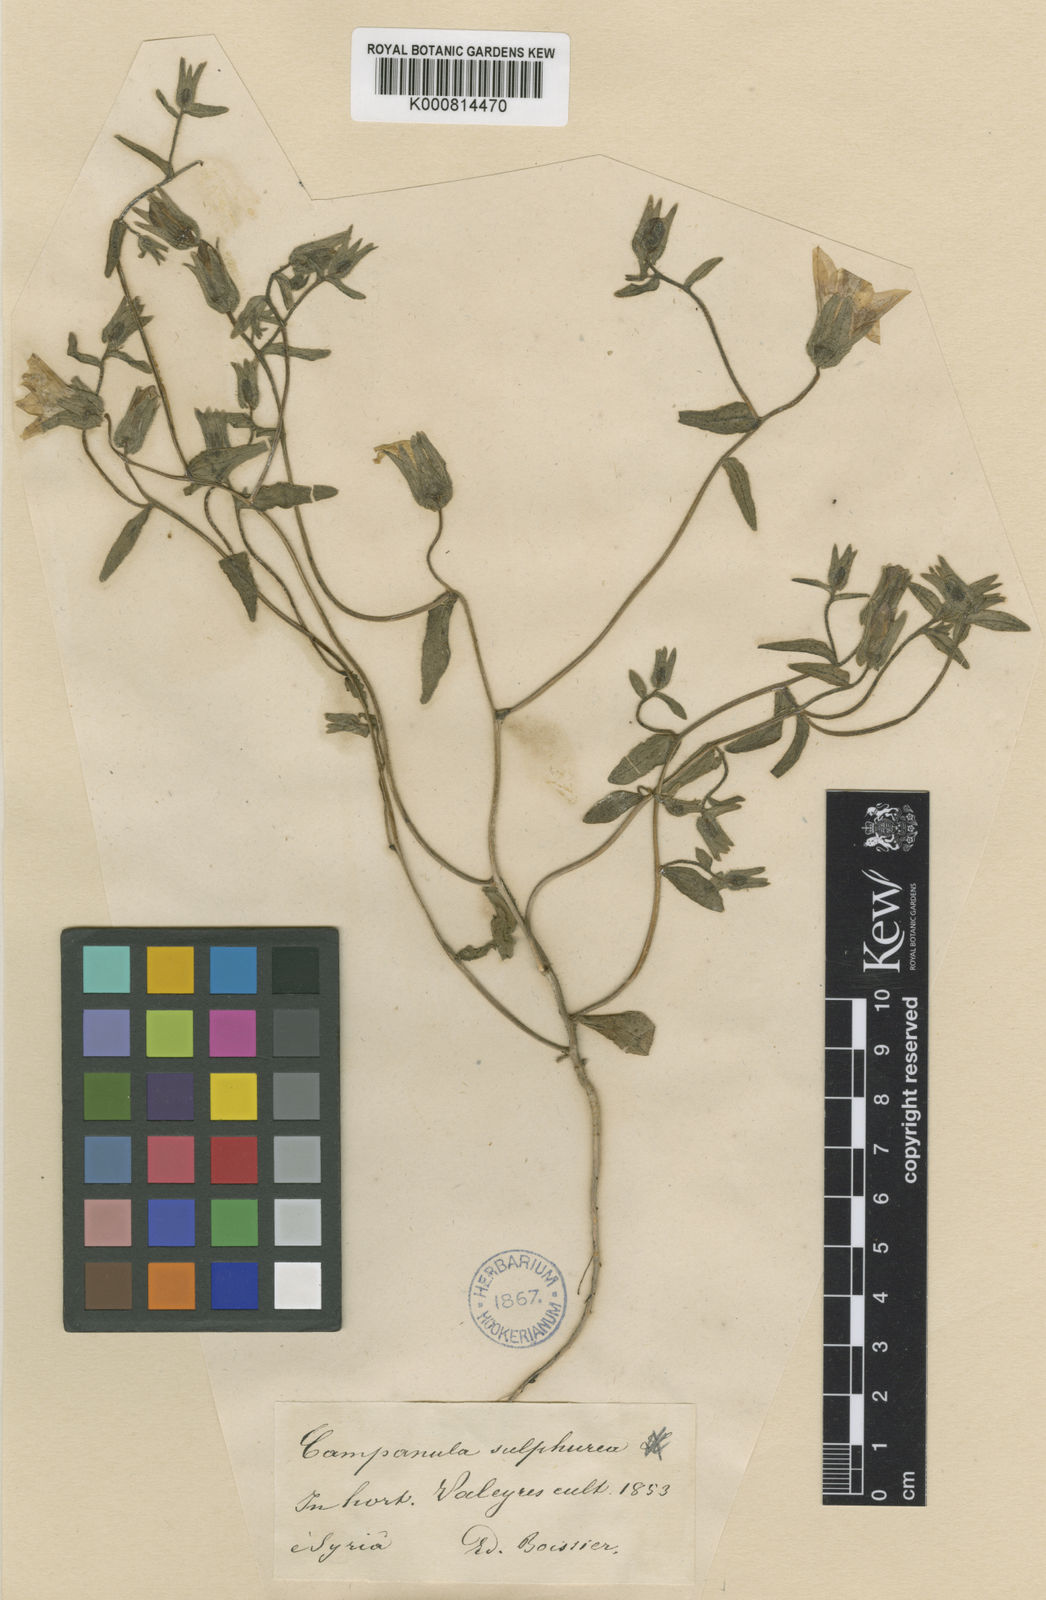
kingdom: Plantae
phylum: Tracheophyta
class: Magnoliopsida
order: Asterales
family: Campanulaceae
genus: Campanula
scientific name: Campanula sulphurea
